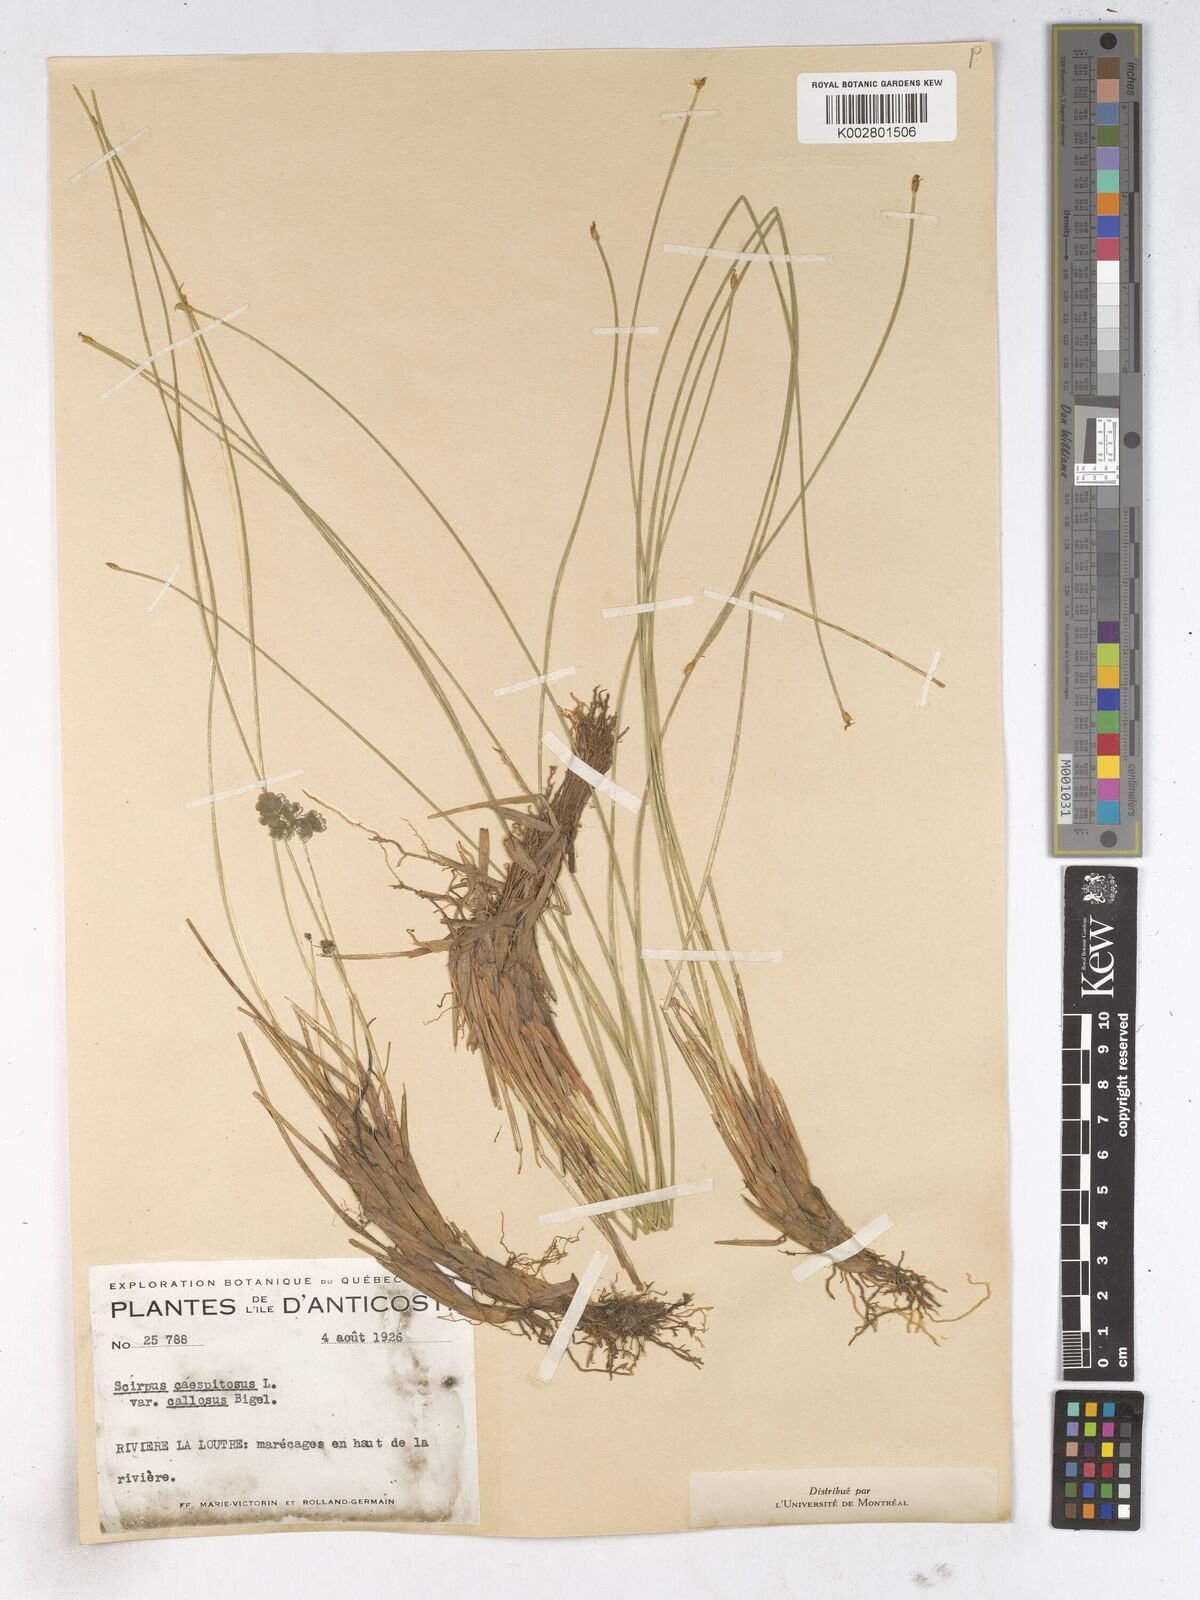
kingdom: Plantae
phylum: Tracheophyta
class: Liliopsida
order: Poales
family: Cyperaceae
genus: Trichophorum
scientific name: Trichophorum cespitosum
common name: Cespitose bulrush
